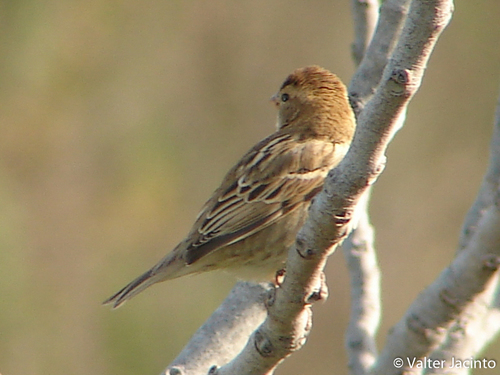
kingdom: Animalia
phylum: Chordata
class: Aves
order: Passeriformes
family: Passeridae
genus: Passer
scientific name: Passer domesticus
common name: House sparrow
